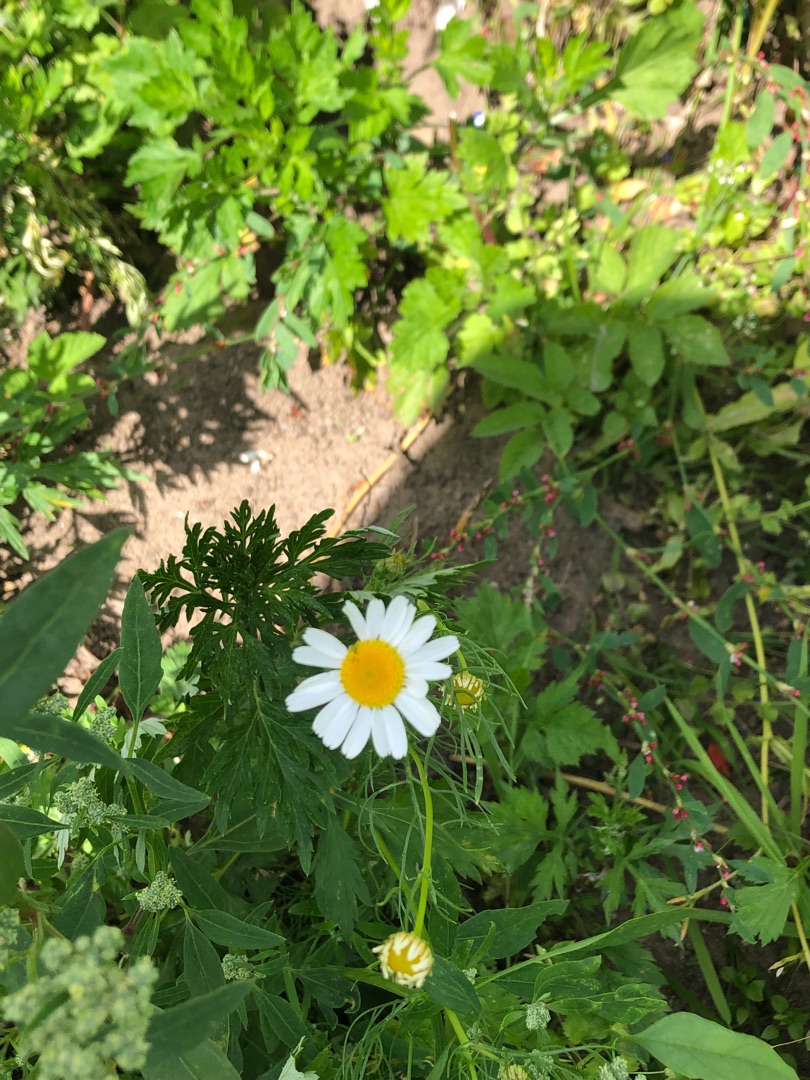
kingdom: Plantae
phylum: Tracheophyta
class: Magnoliopsida
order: Asterales
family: Asteraceae
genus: Anthemis
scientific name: Anthemis arvensis
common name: Ager-gåseurt
